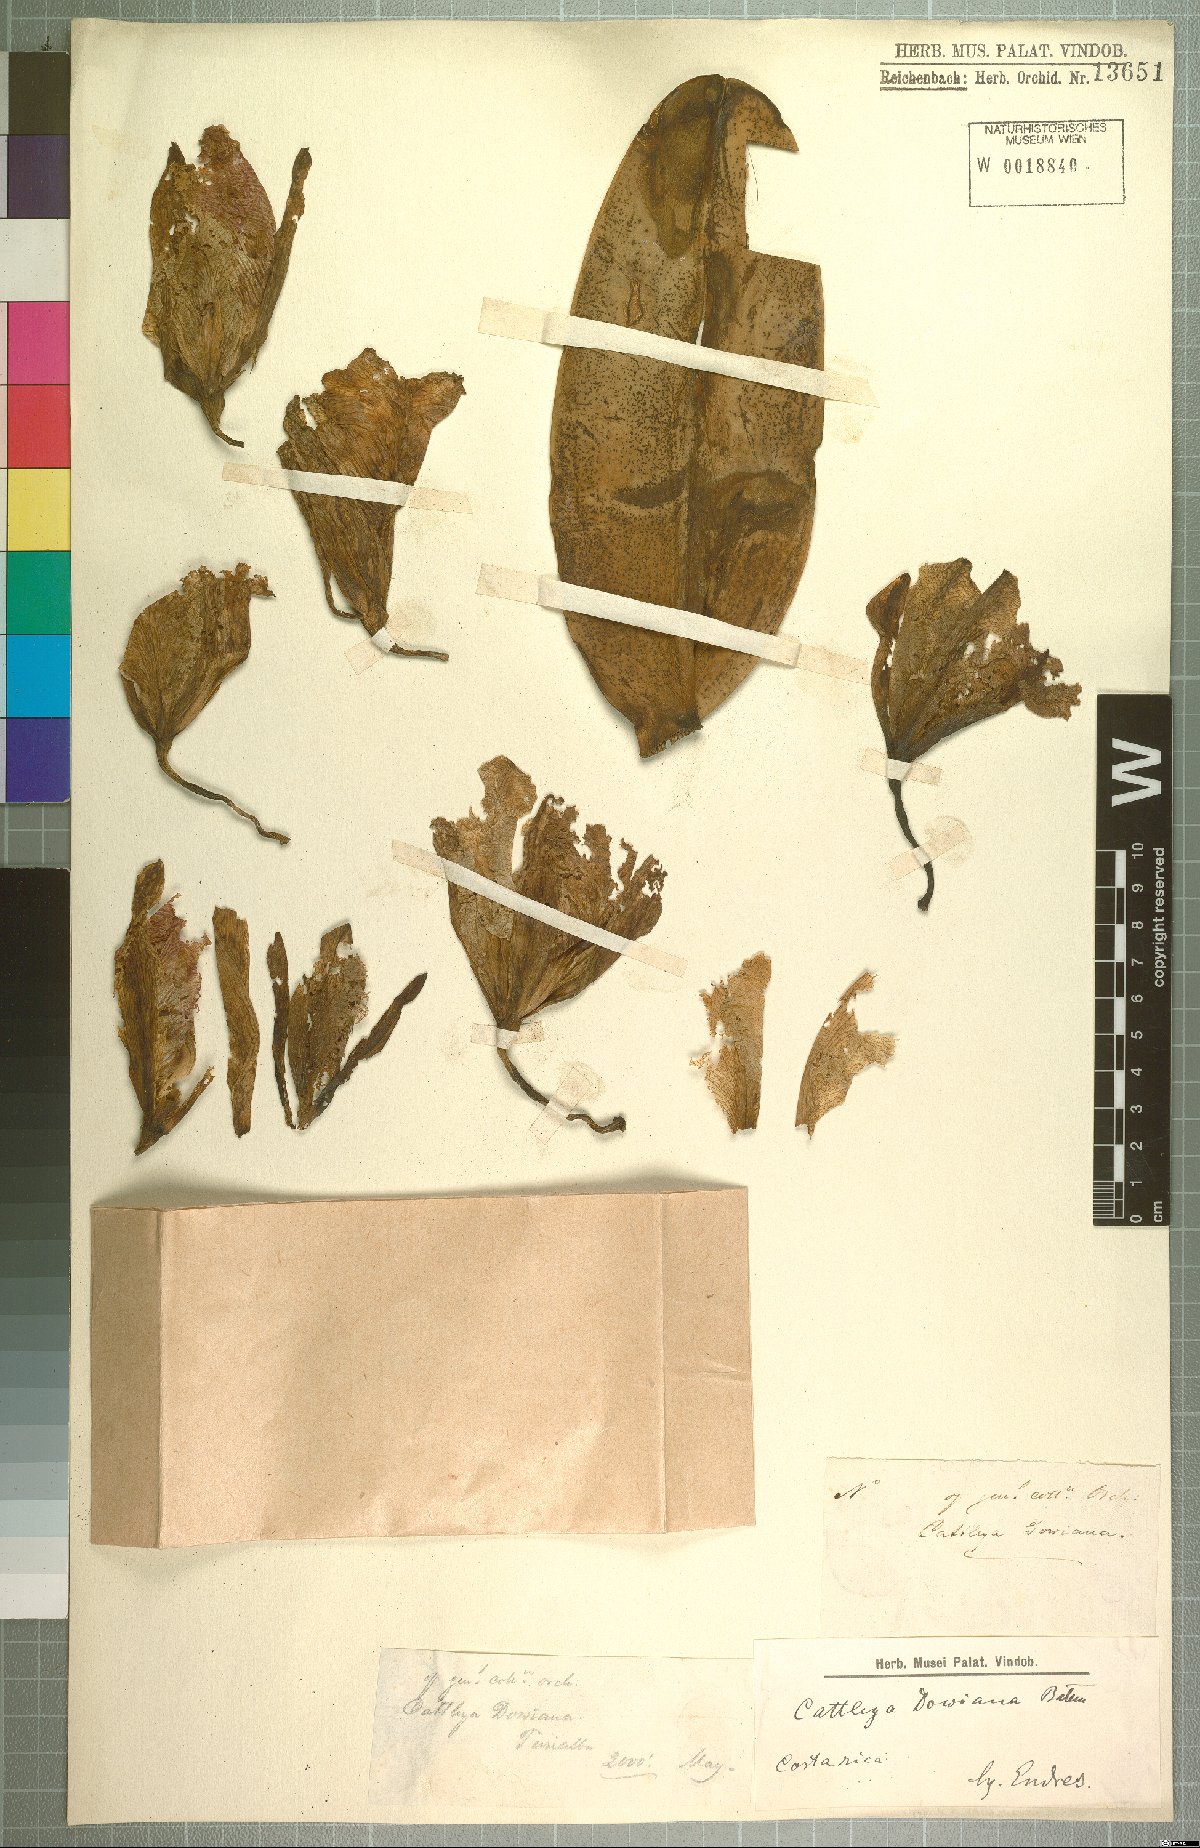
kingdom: Plantae
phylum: Tracheophyta
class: Liliopsida
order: Asparagales
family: Orchidaceae
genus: Cattleya
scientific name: Cattleya dowiana
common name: Queen cattleya
